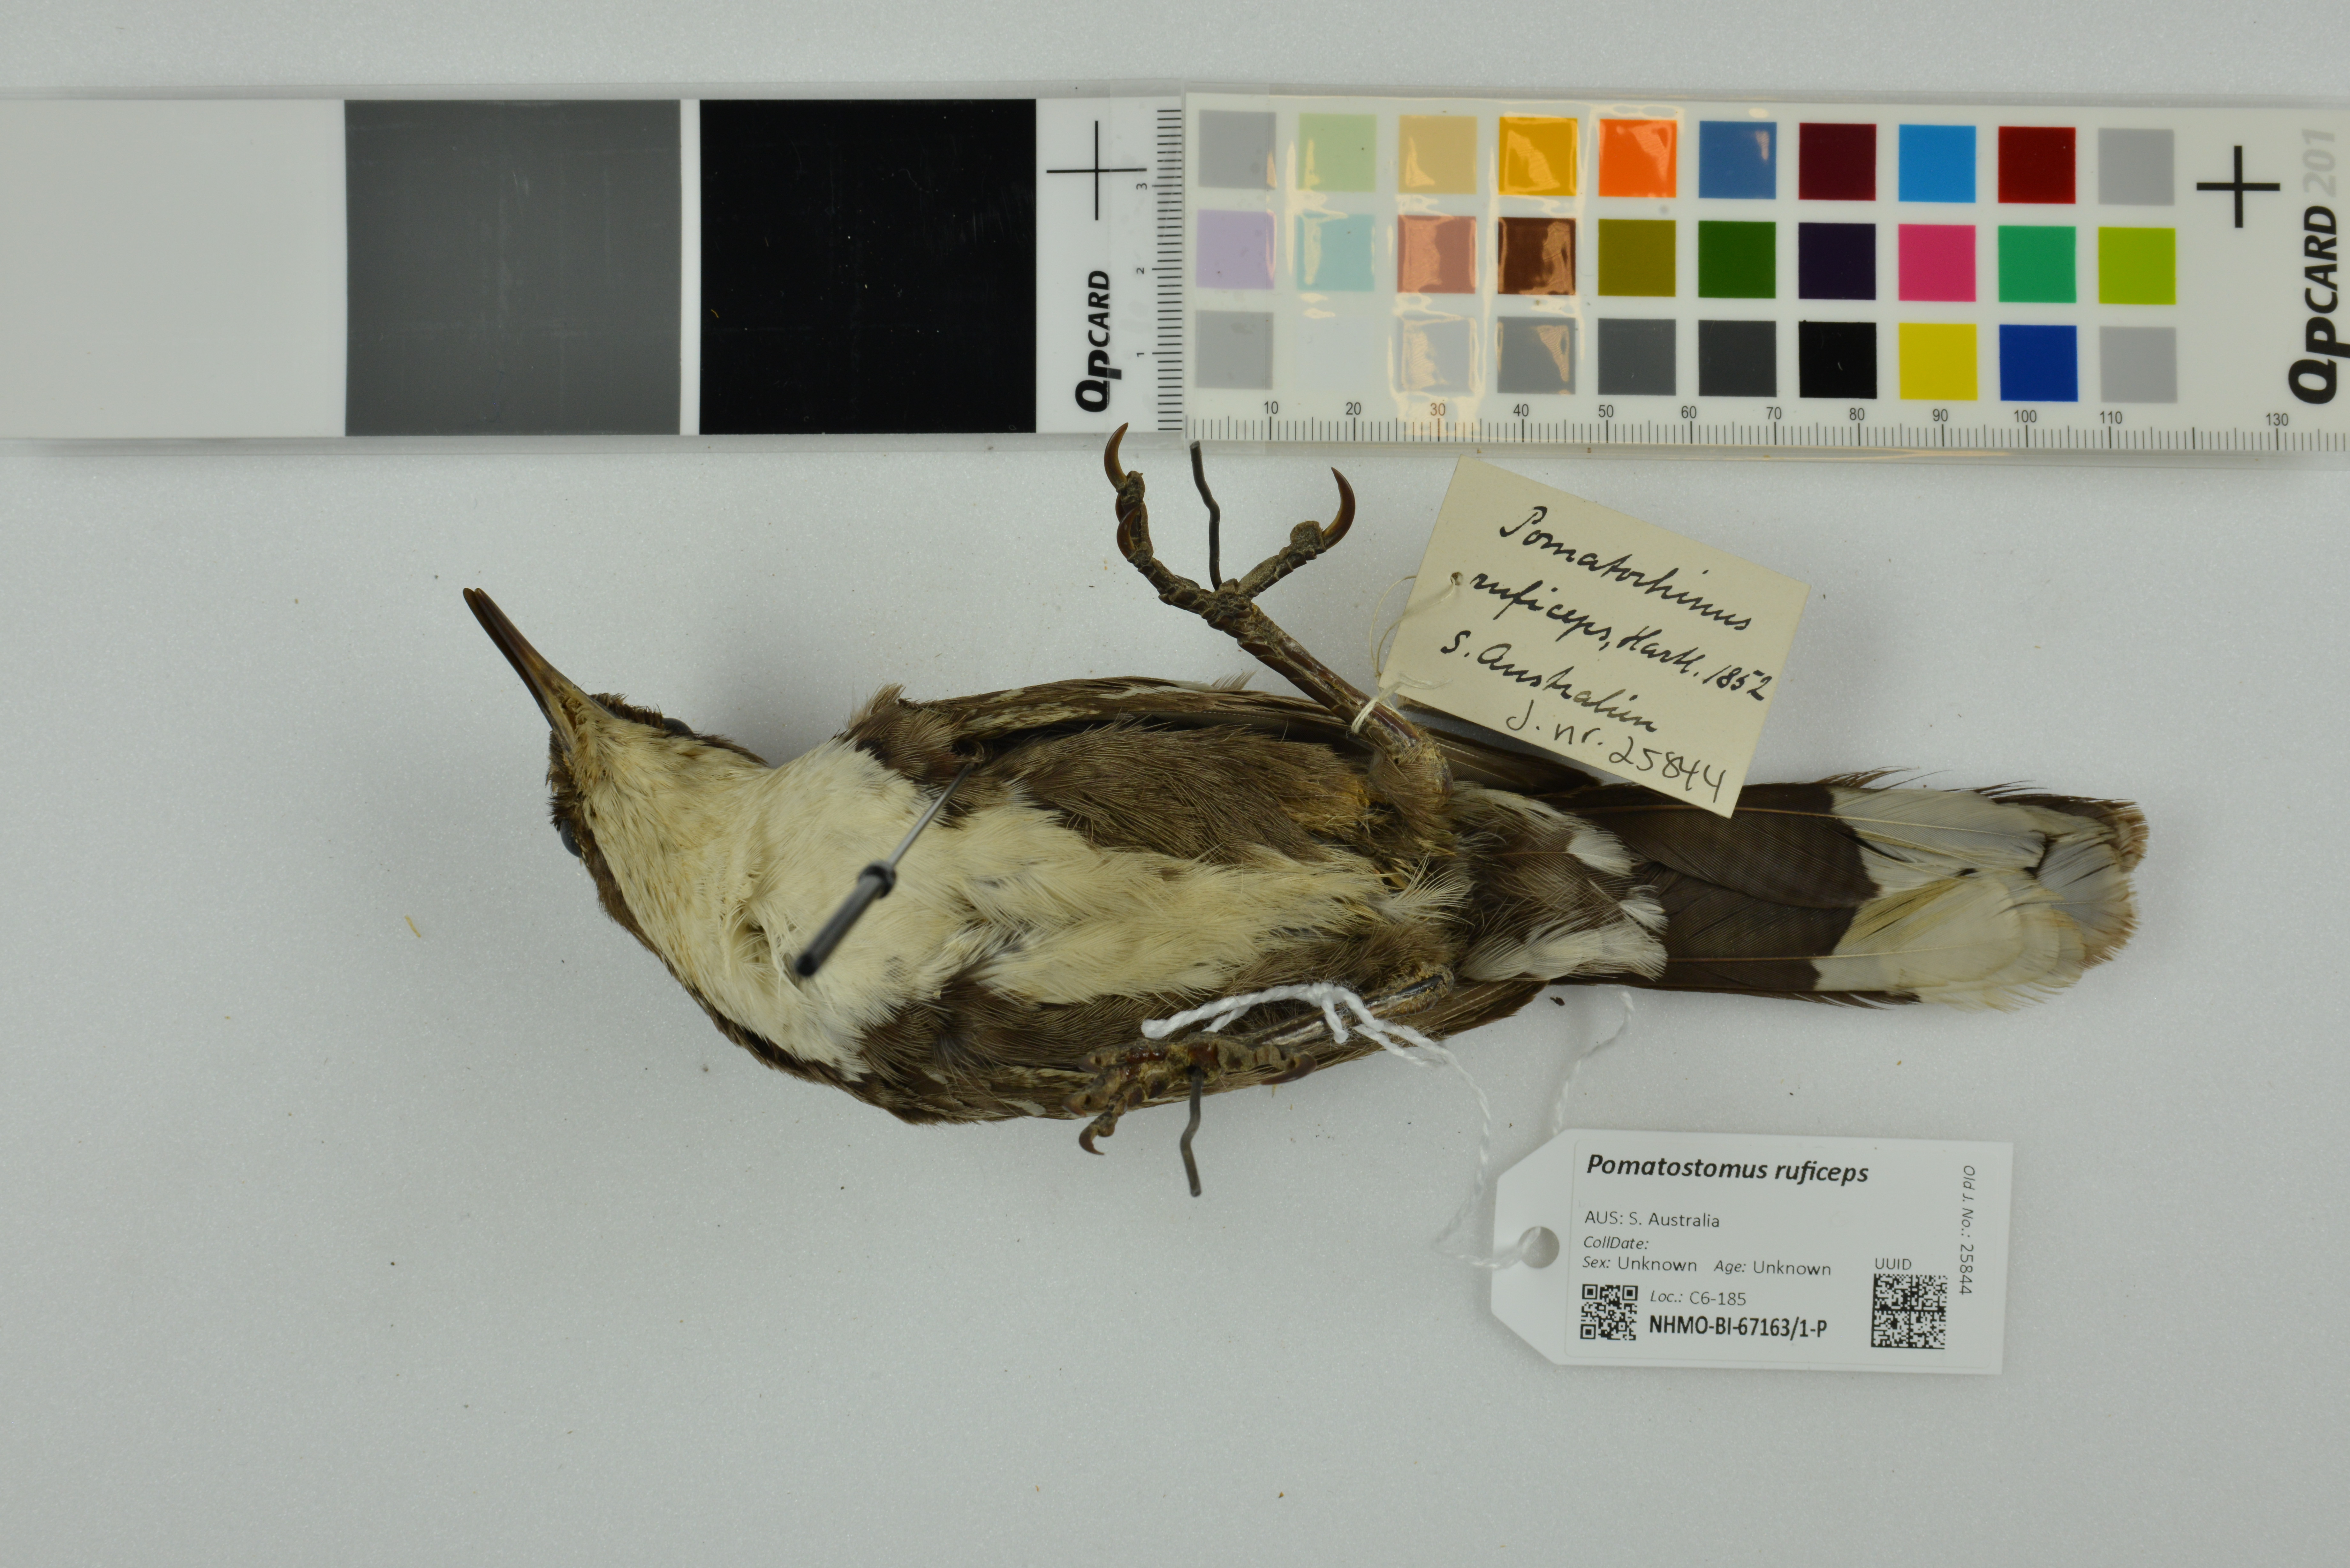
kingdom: Animalia
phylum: Chordata
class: Aves
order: Passeriformes
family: Pomatostomidae
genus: Pomatostomus
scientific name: Pomatostomus ruficeps
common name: Chestnut-crowned babbler
